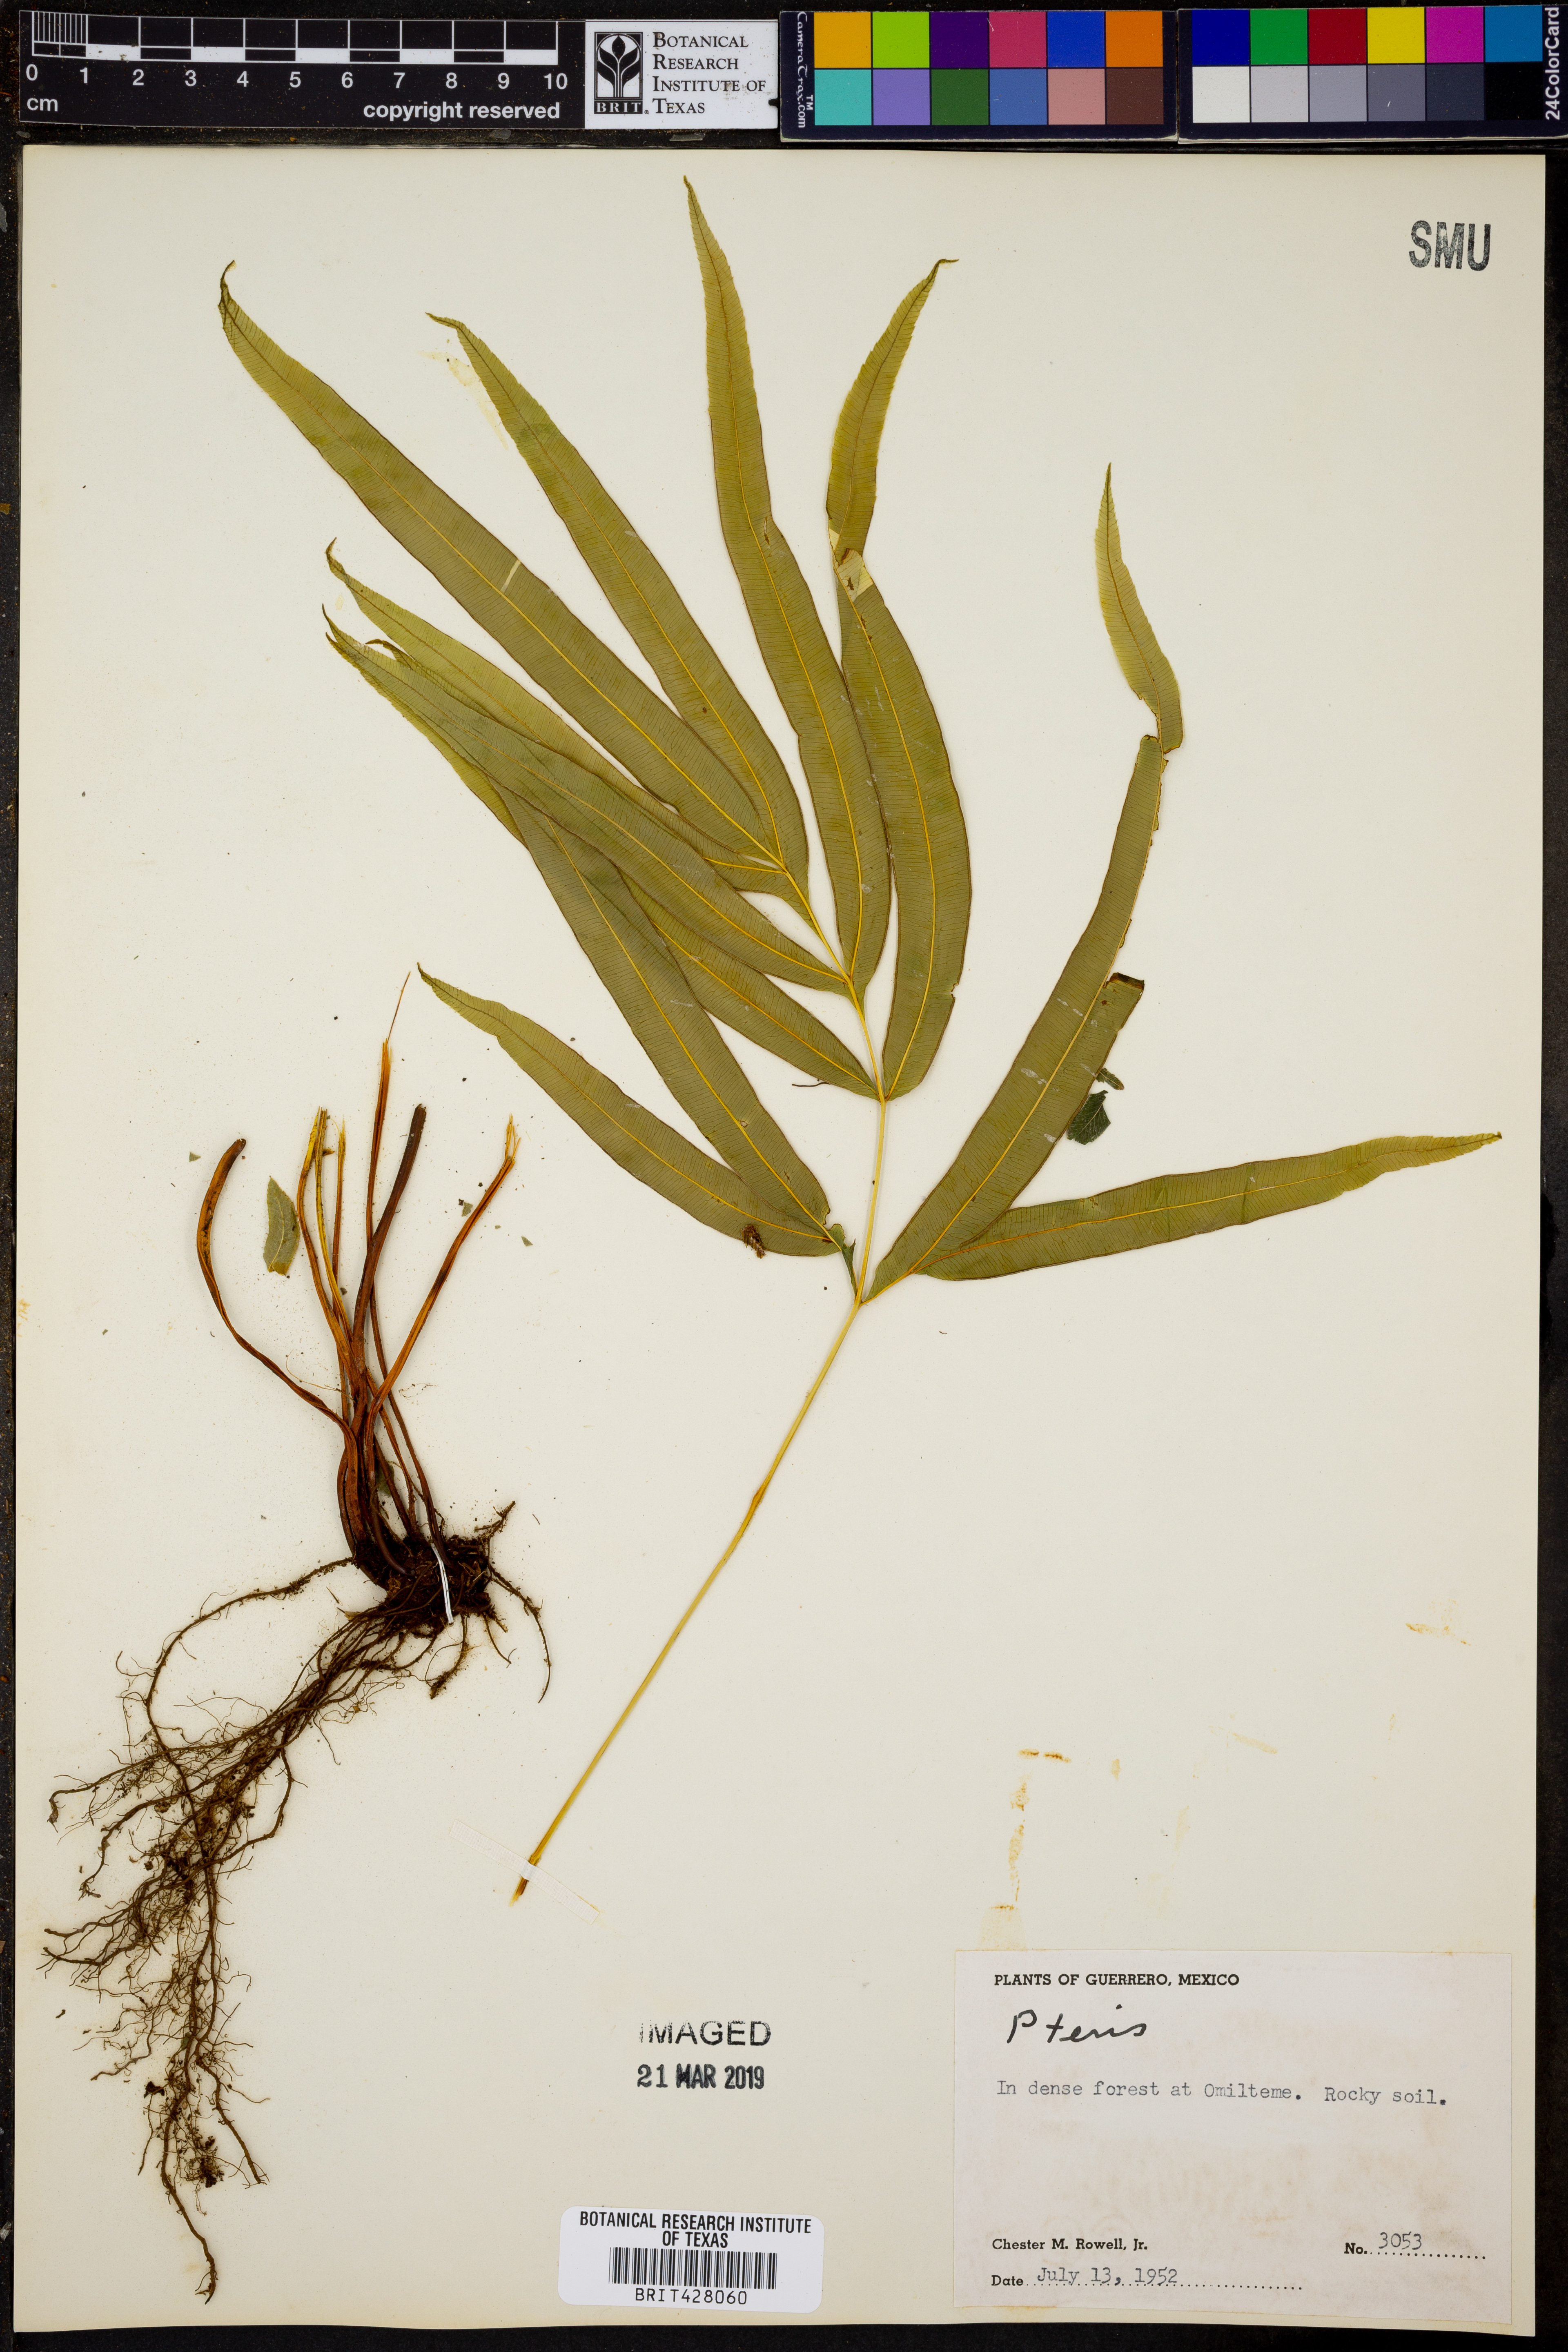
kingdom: Plantae
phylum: Tracheophyta
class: Polypodiopsida
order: Polypodiales
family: Pteridaceae
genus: Pteris
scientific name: Pteris
